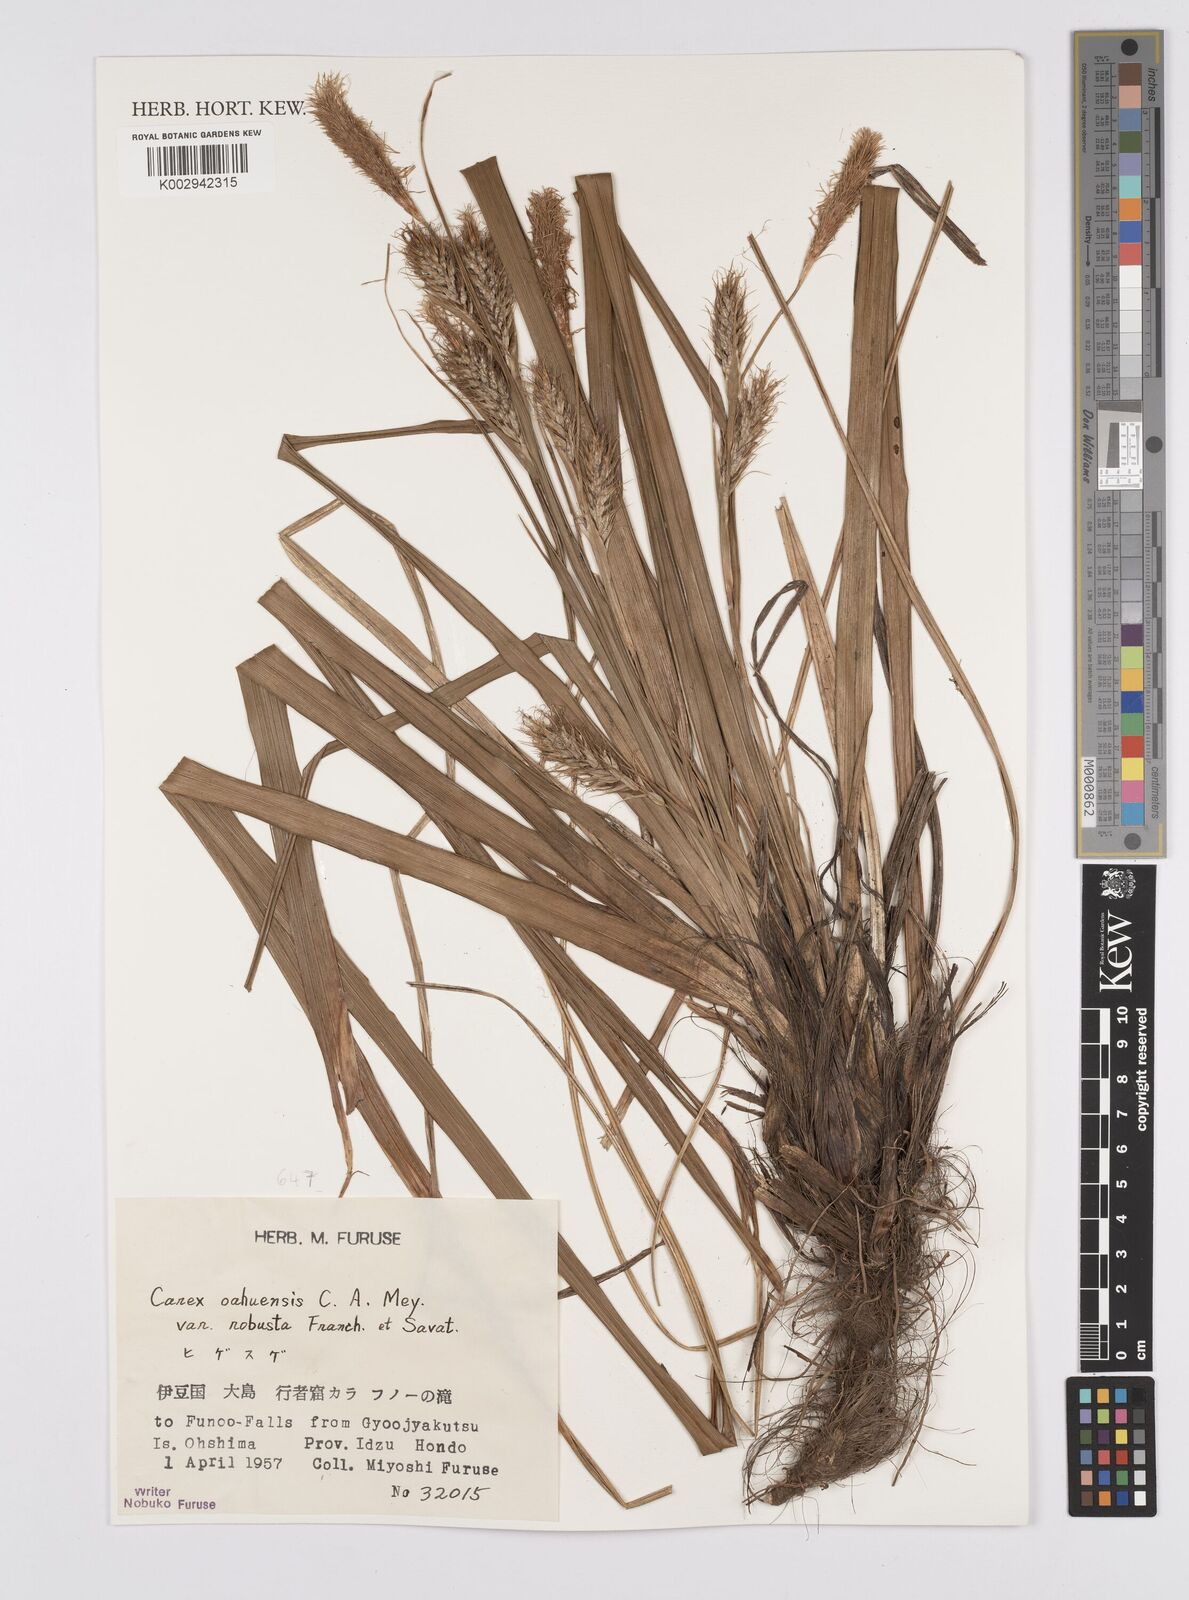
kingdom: Plantae
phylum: Tracheophyta
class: Liliopsida
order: Poales
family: Cyperaceae
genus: Carex
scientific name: Carex wahuensis
